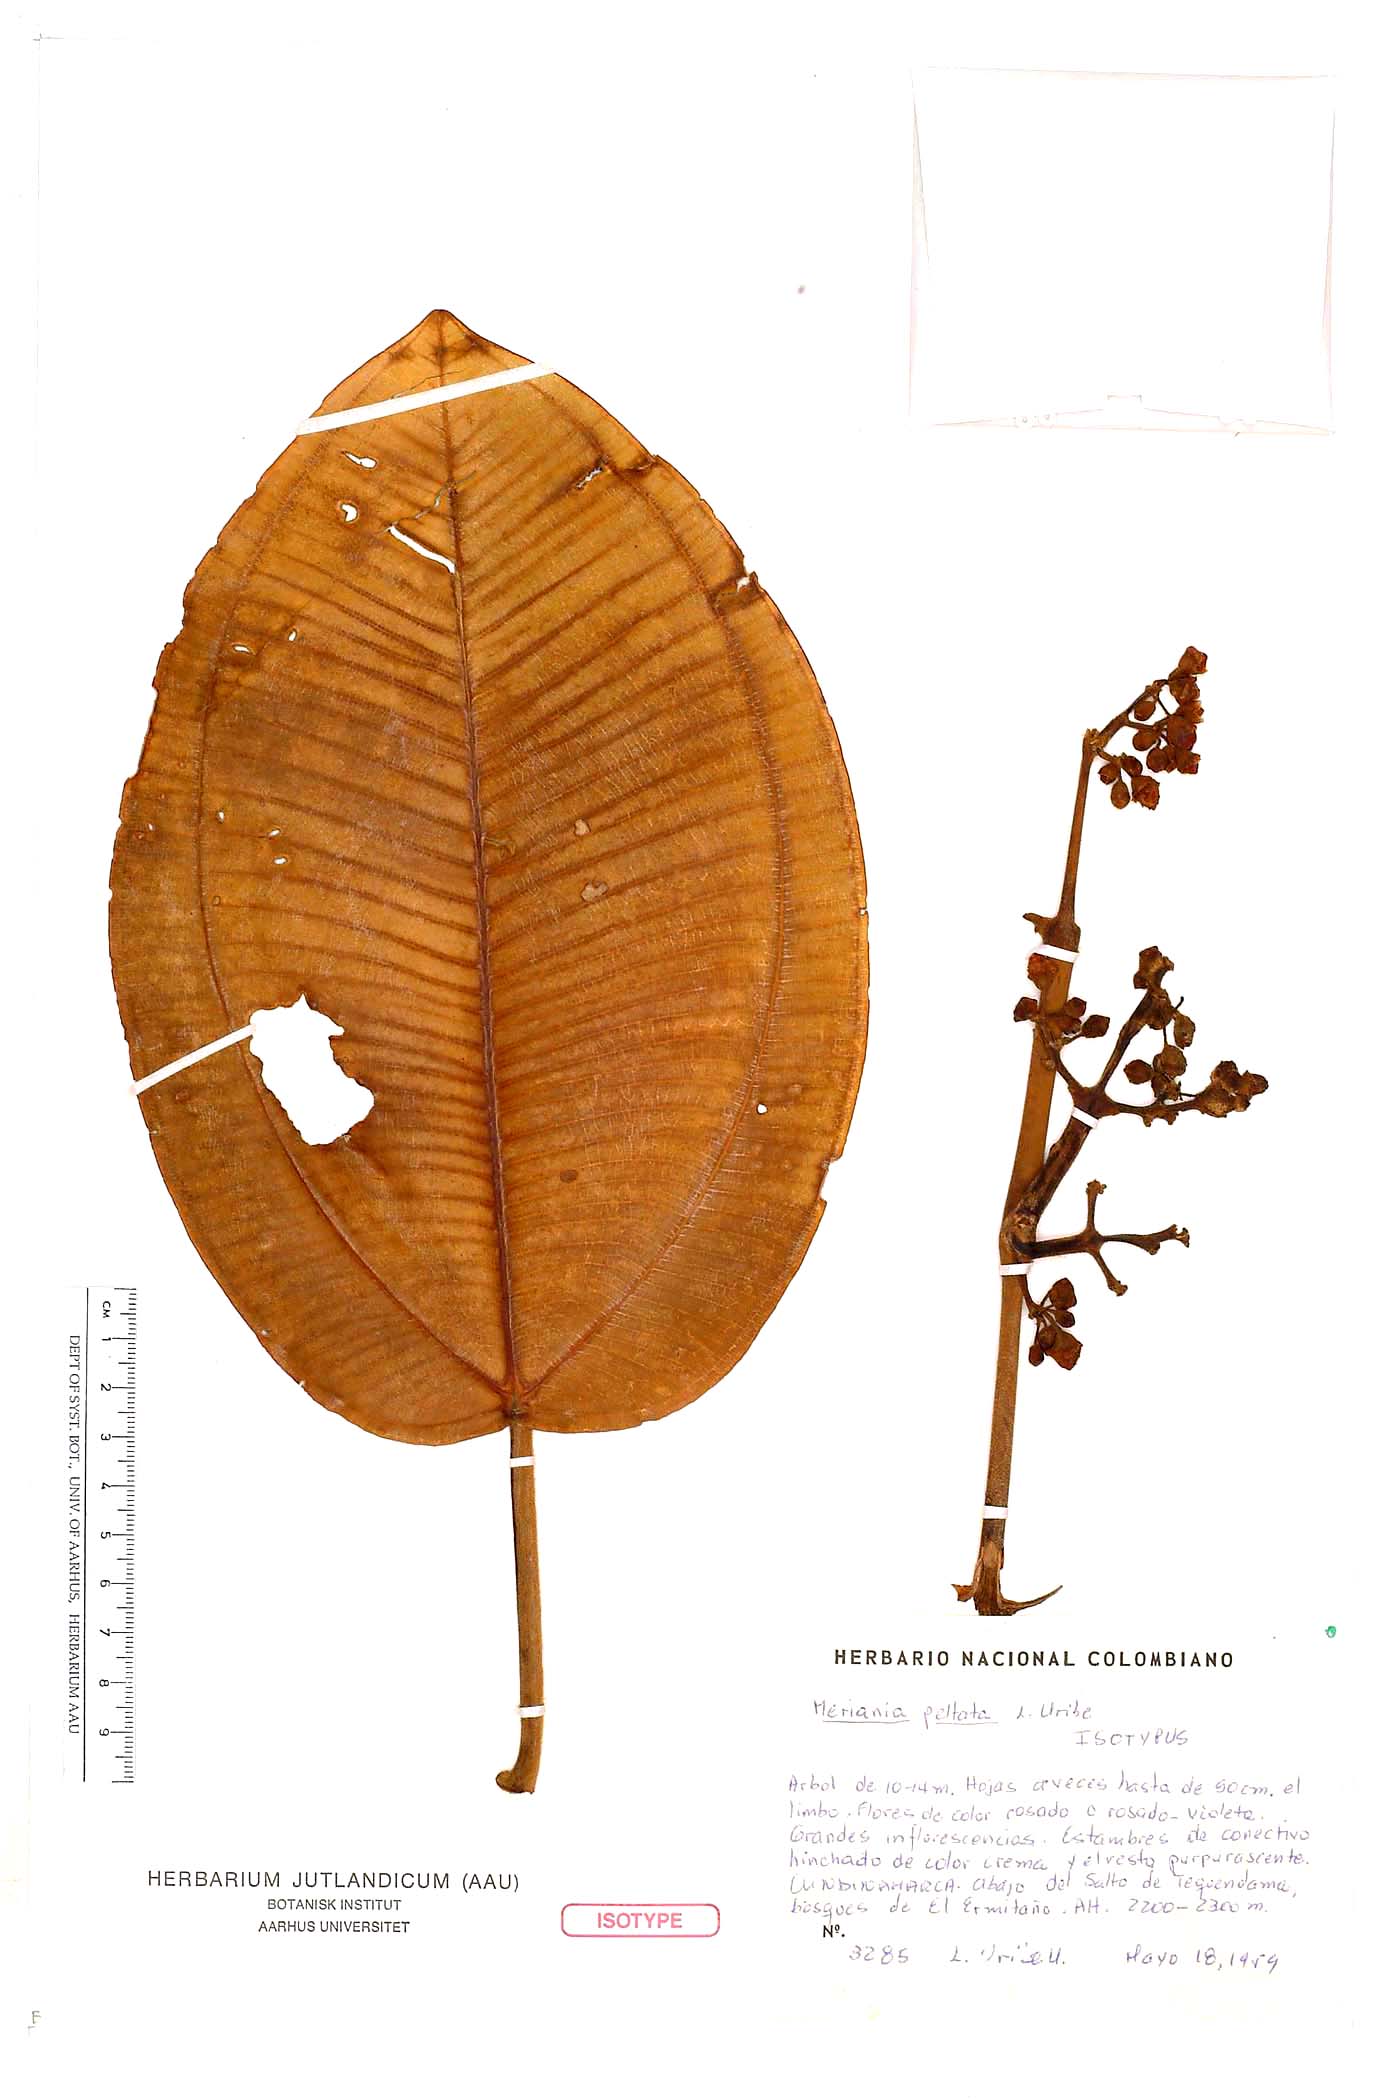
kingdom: Plantae
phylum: Tracheophyta
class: Magnoliopsida
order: Myrtales
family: Melastomataceae
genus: Meriania
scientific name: Meriania macrophylla
